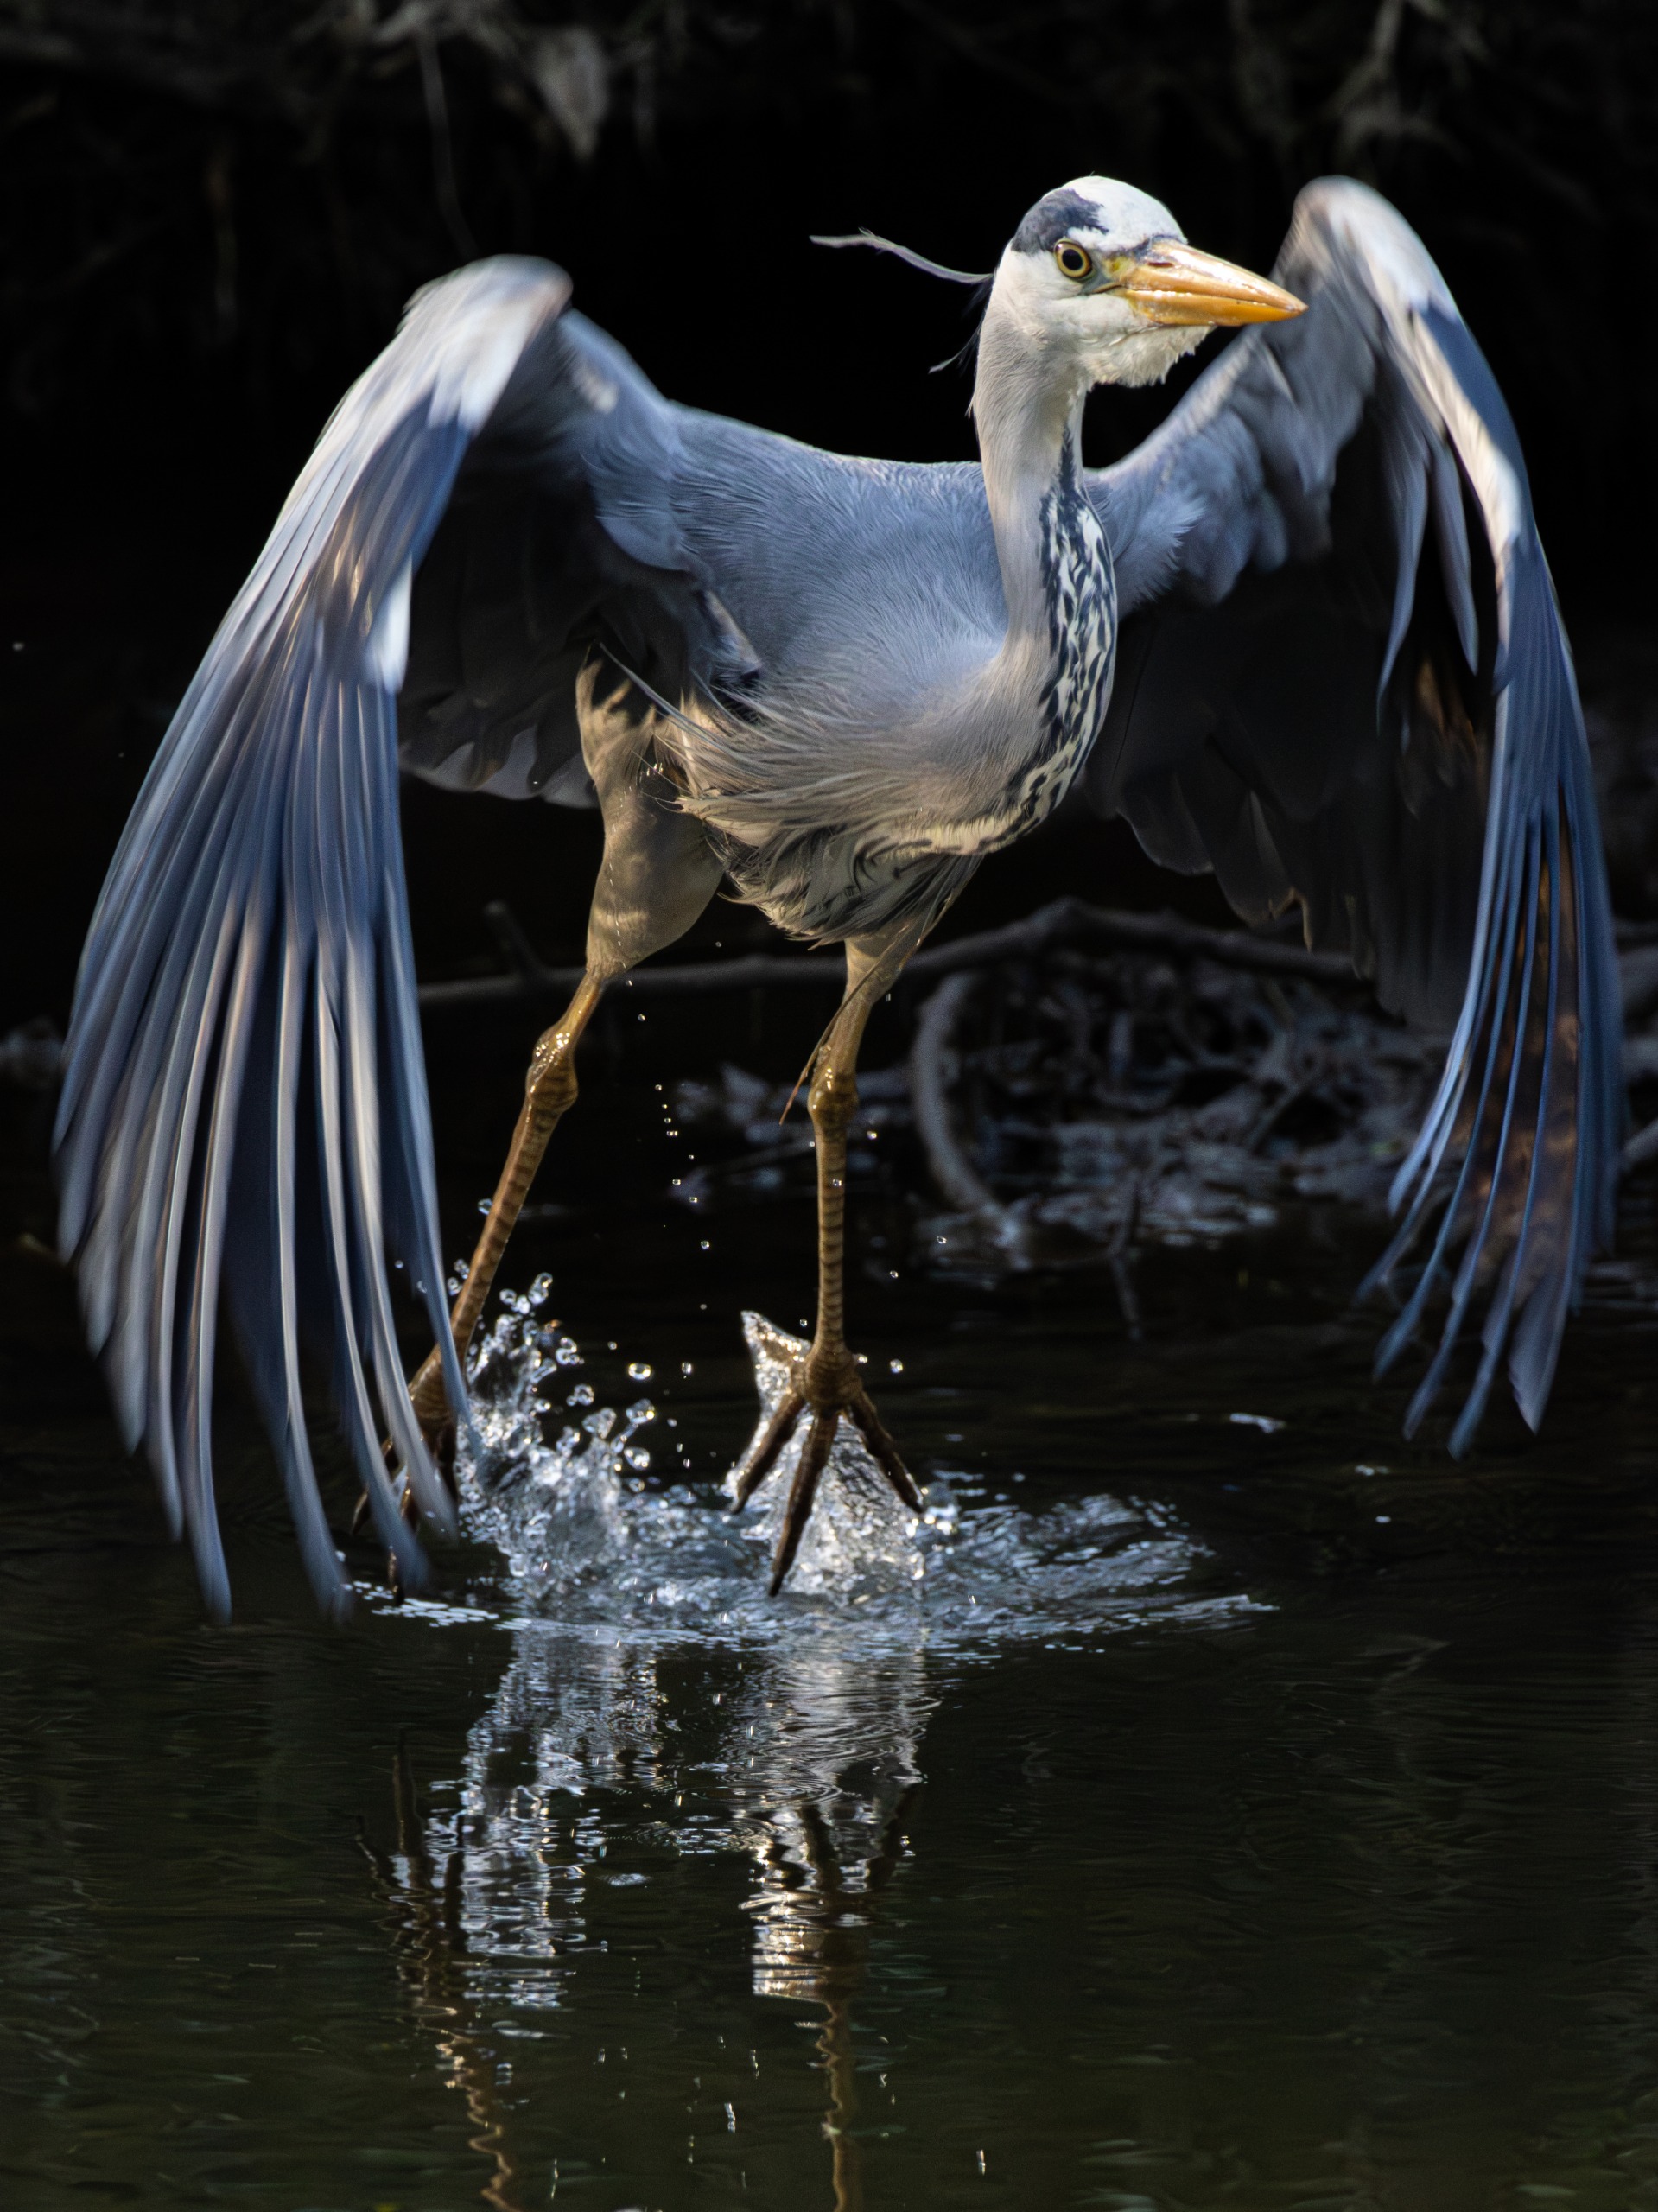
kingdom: Animalia
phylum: Chordata
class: Aves
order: Pelecaniformes
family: Ardeidae
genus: Ardea
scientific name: Ardea cinerea
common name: Fiskehejre
